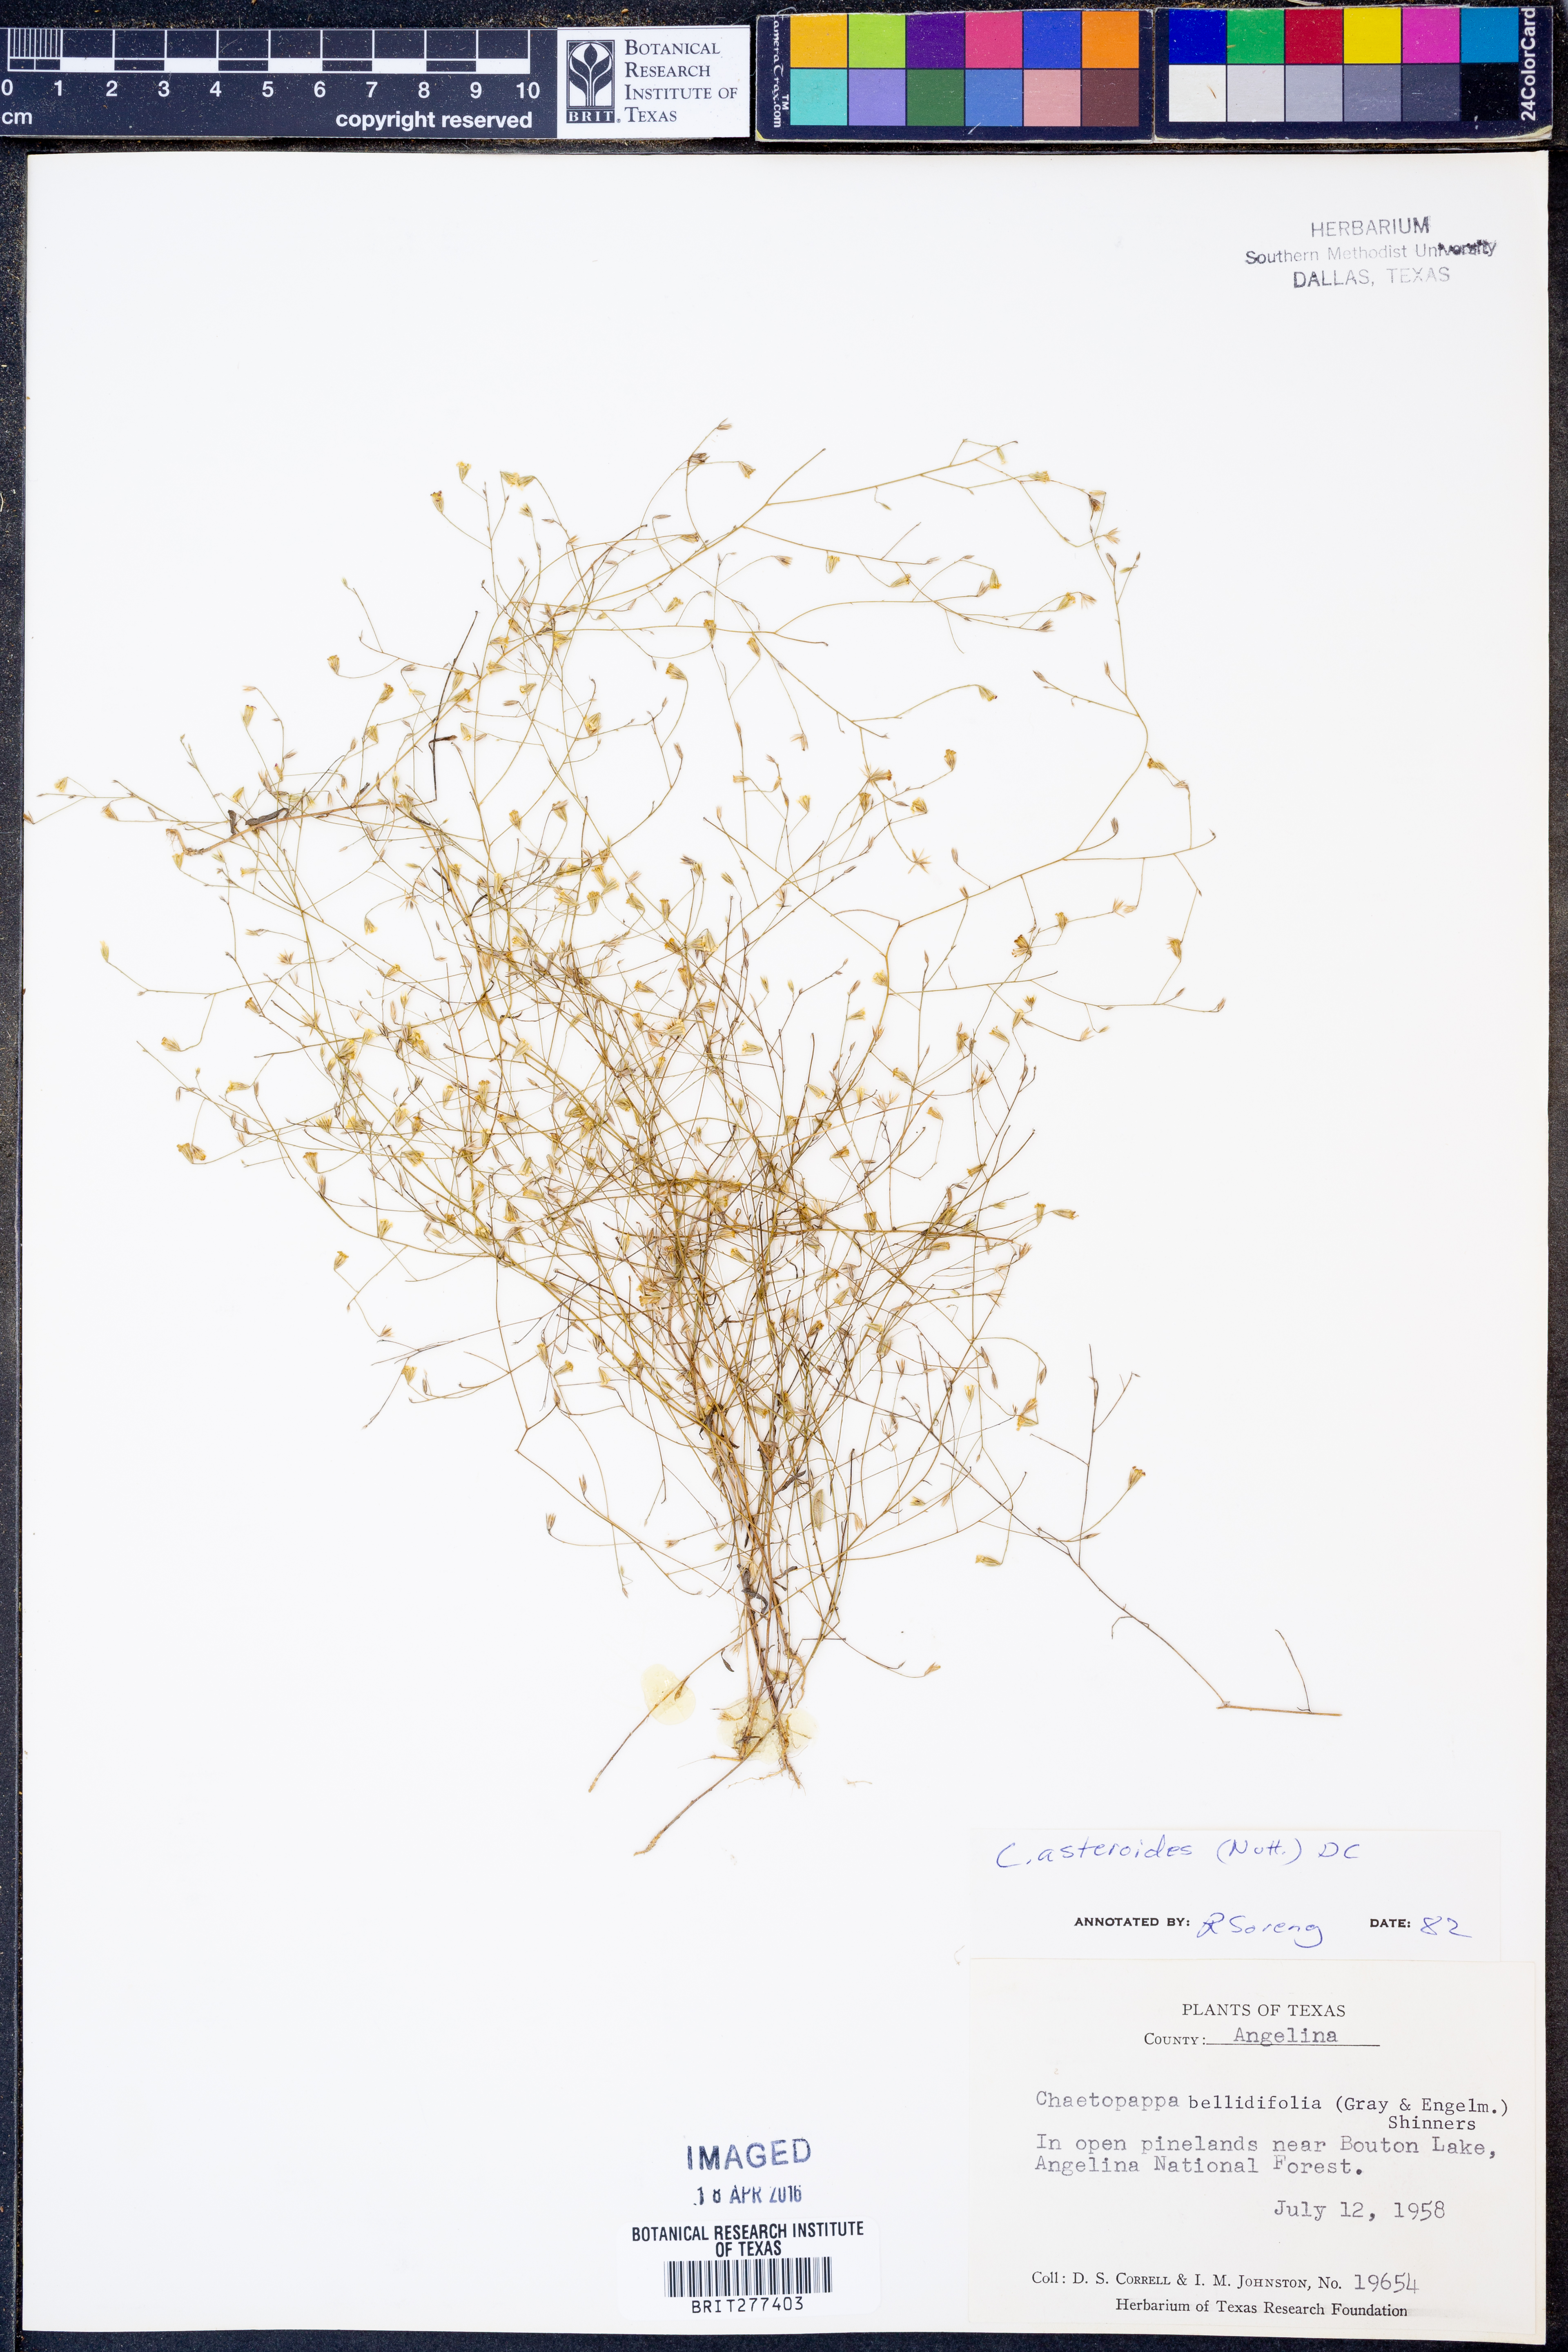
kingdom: Plantae
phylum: Tracheophyta
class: Magnoliopsida
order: Asterales
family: Asteraceae
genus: Chaetopappa
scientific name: Chaetopappa asteroides
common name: Tiny lazy daisy
